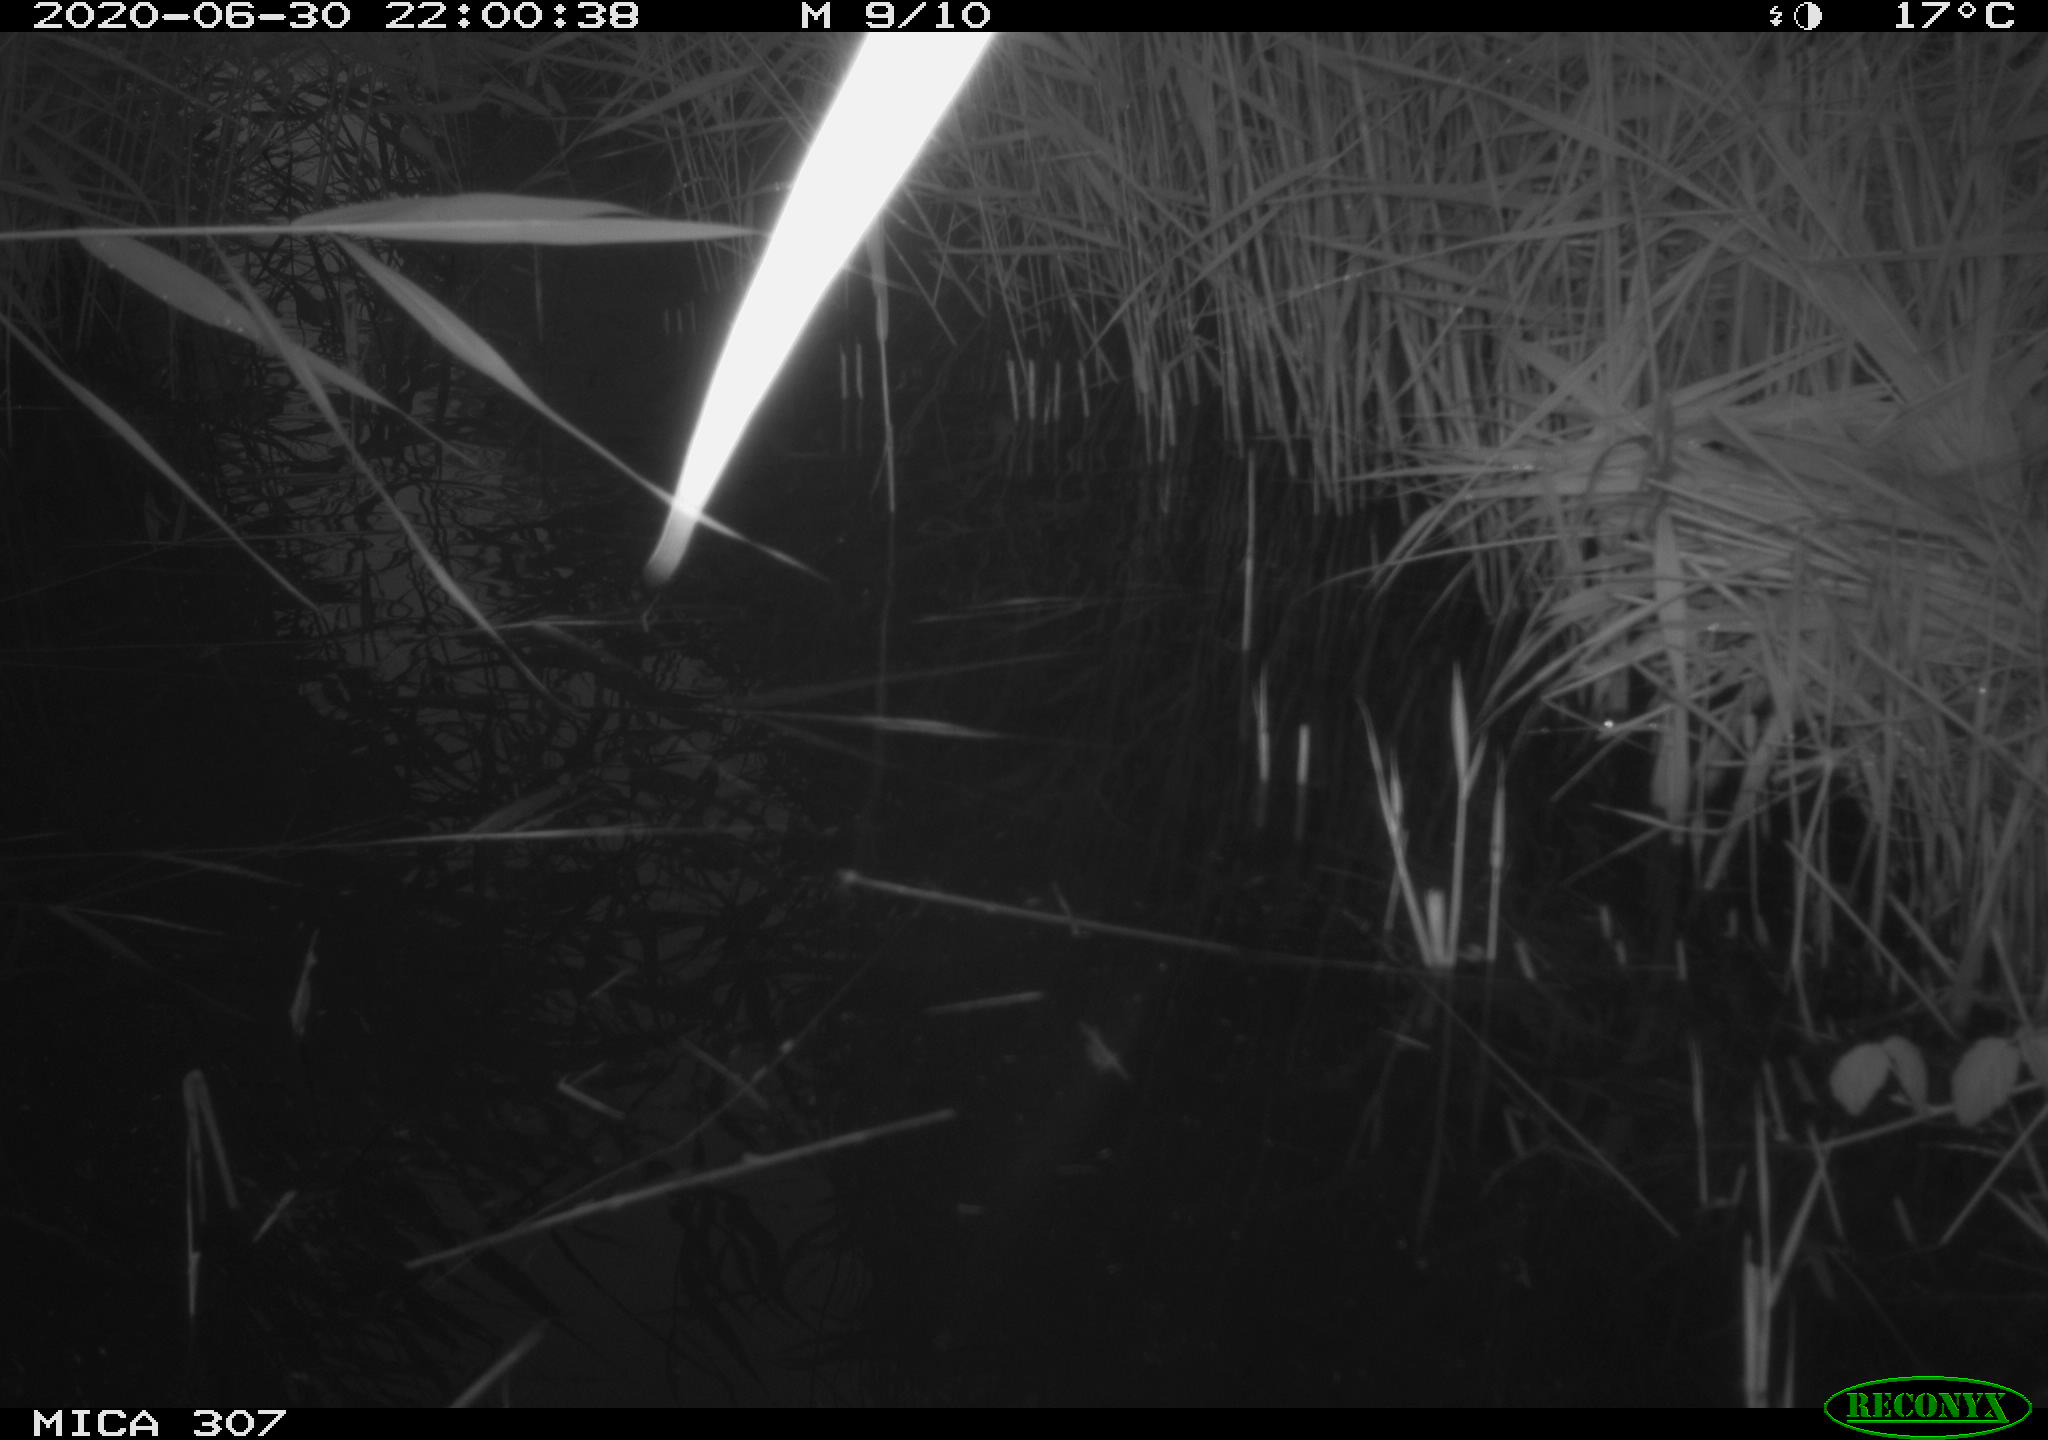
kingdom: Animalia
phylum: Chordata
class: Mammalia
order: Rodentia
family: Muridae
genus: Rattus
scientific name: Rattus norvegicus
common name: Brown rat
